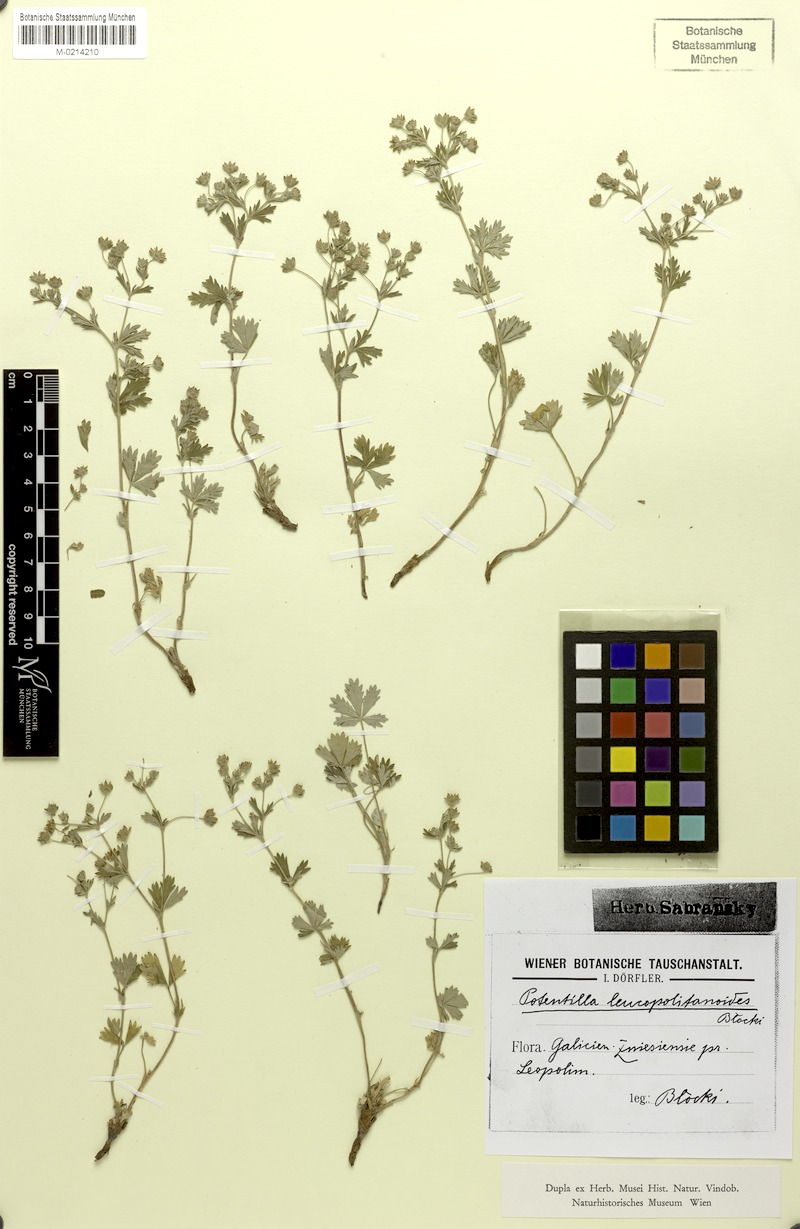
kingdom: Plantae
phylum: Tracheophyta
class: Magnoliopsida
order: Rosales
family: Rosaceae
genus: Potentilla
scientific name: Potentilla thyrsiflora
